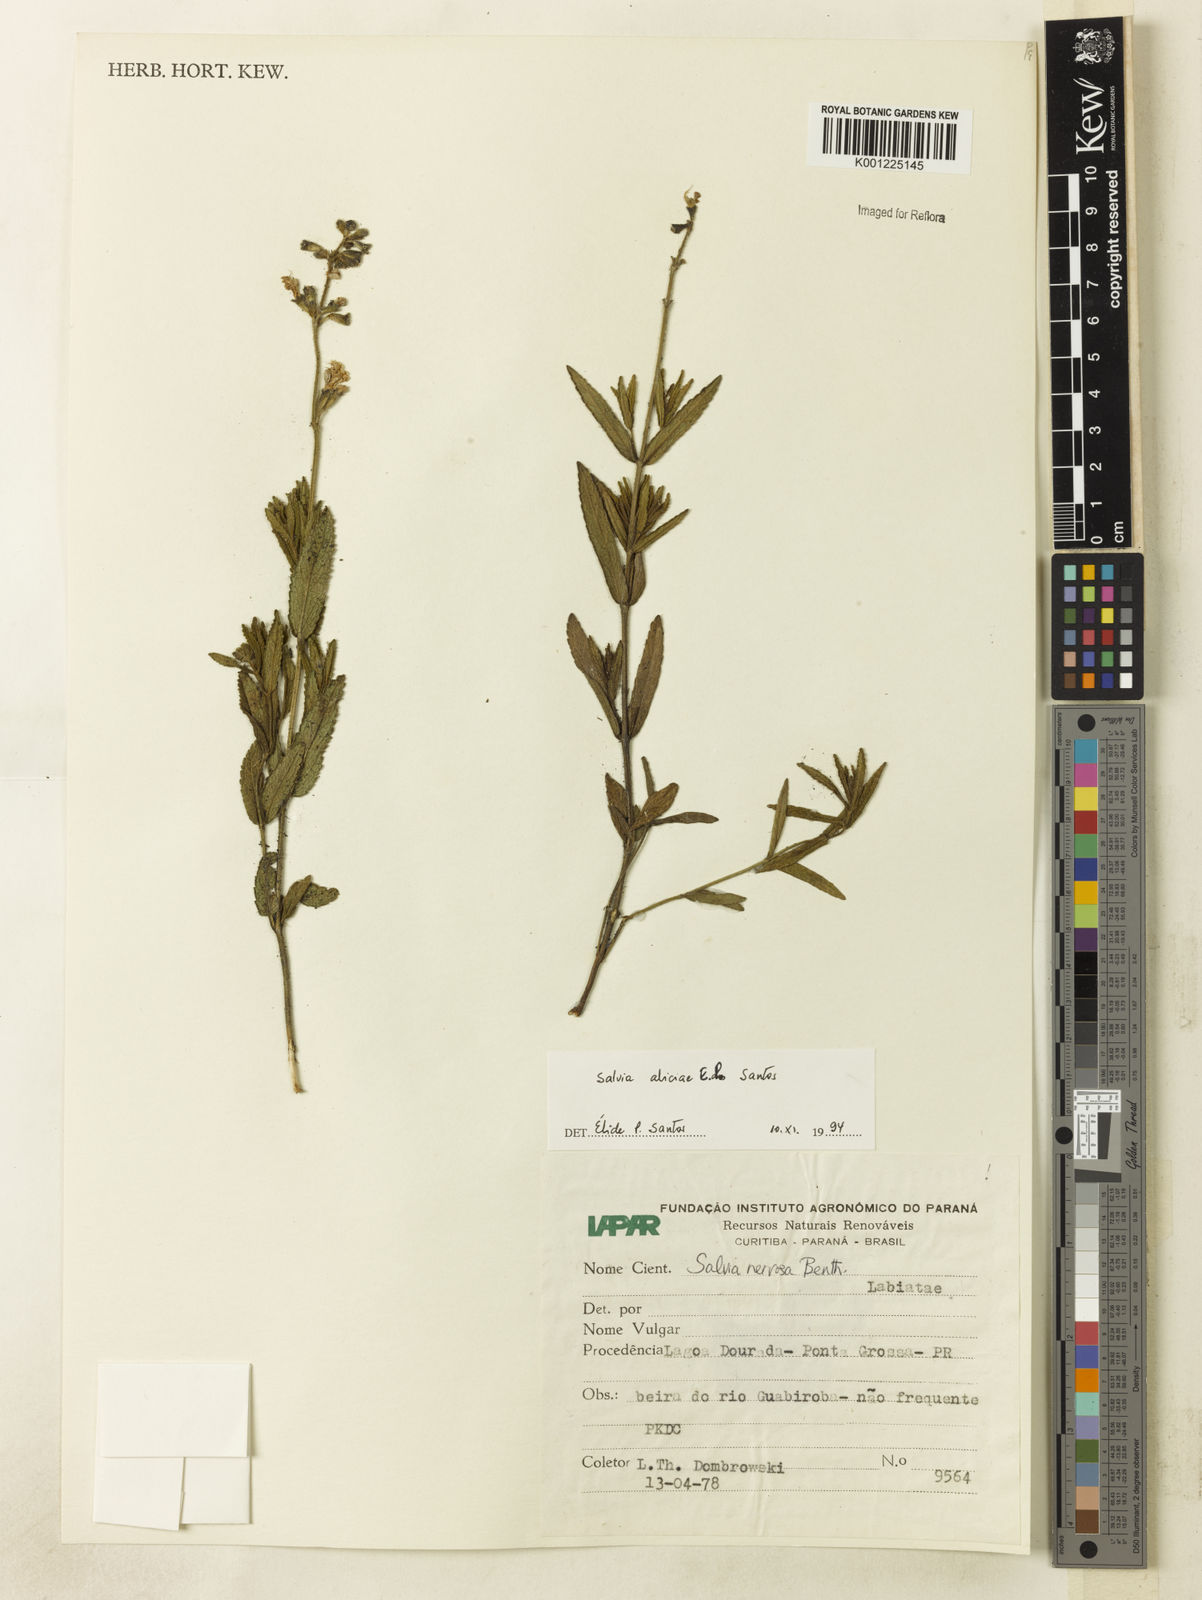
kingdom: Plantae
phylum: Tracheophyta
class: Magnoliopsida
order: Lamiales
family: Lamiaceae
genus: Salvia
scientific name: Salvia aliciae
